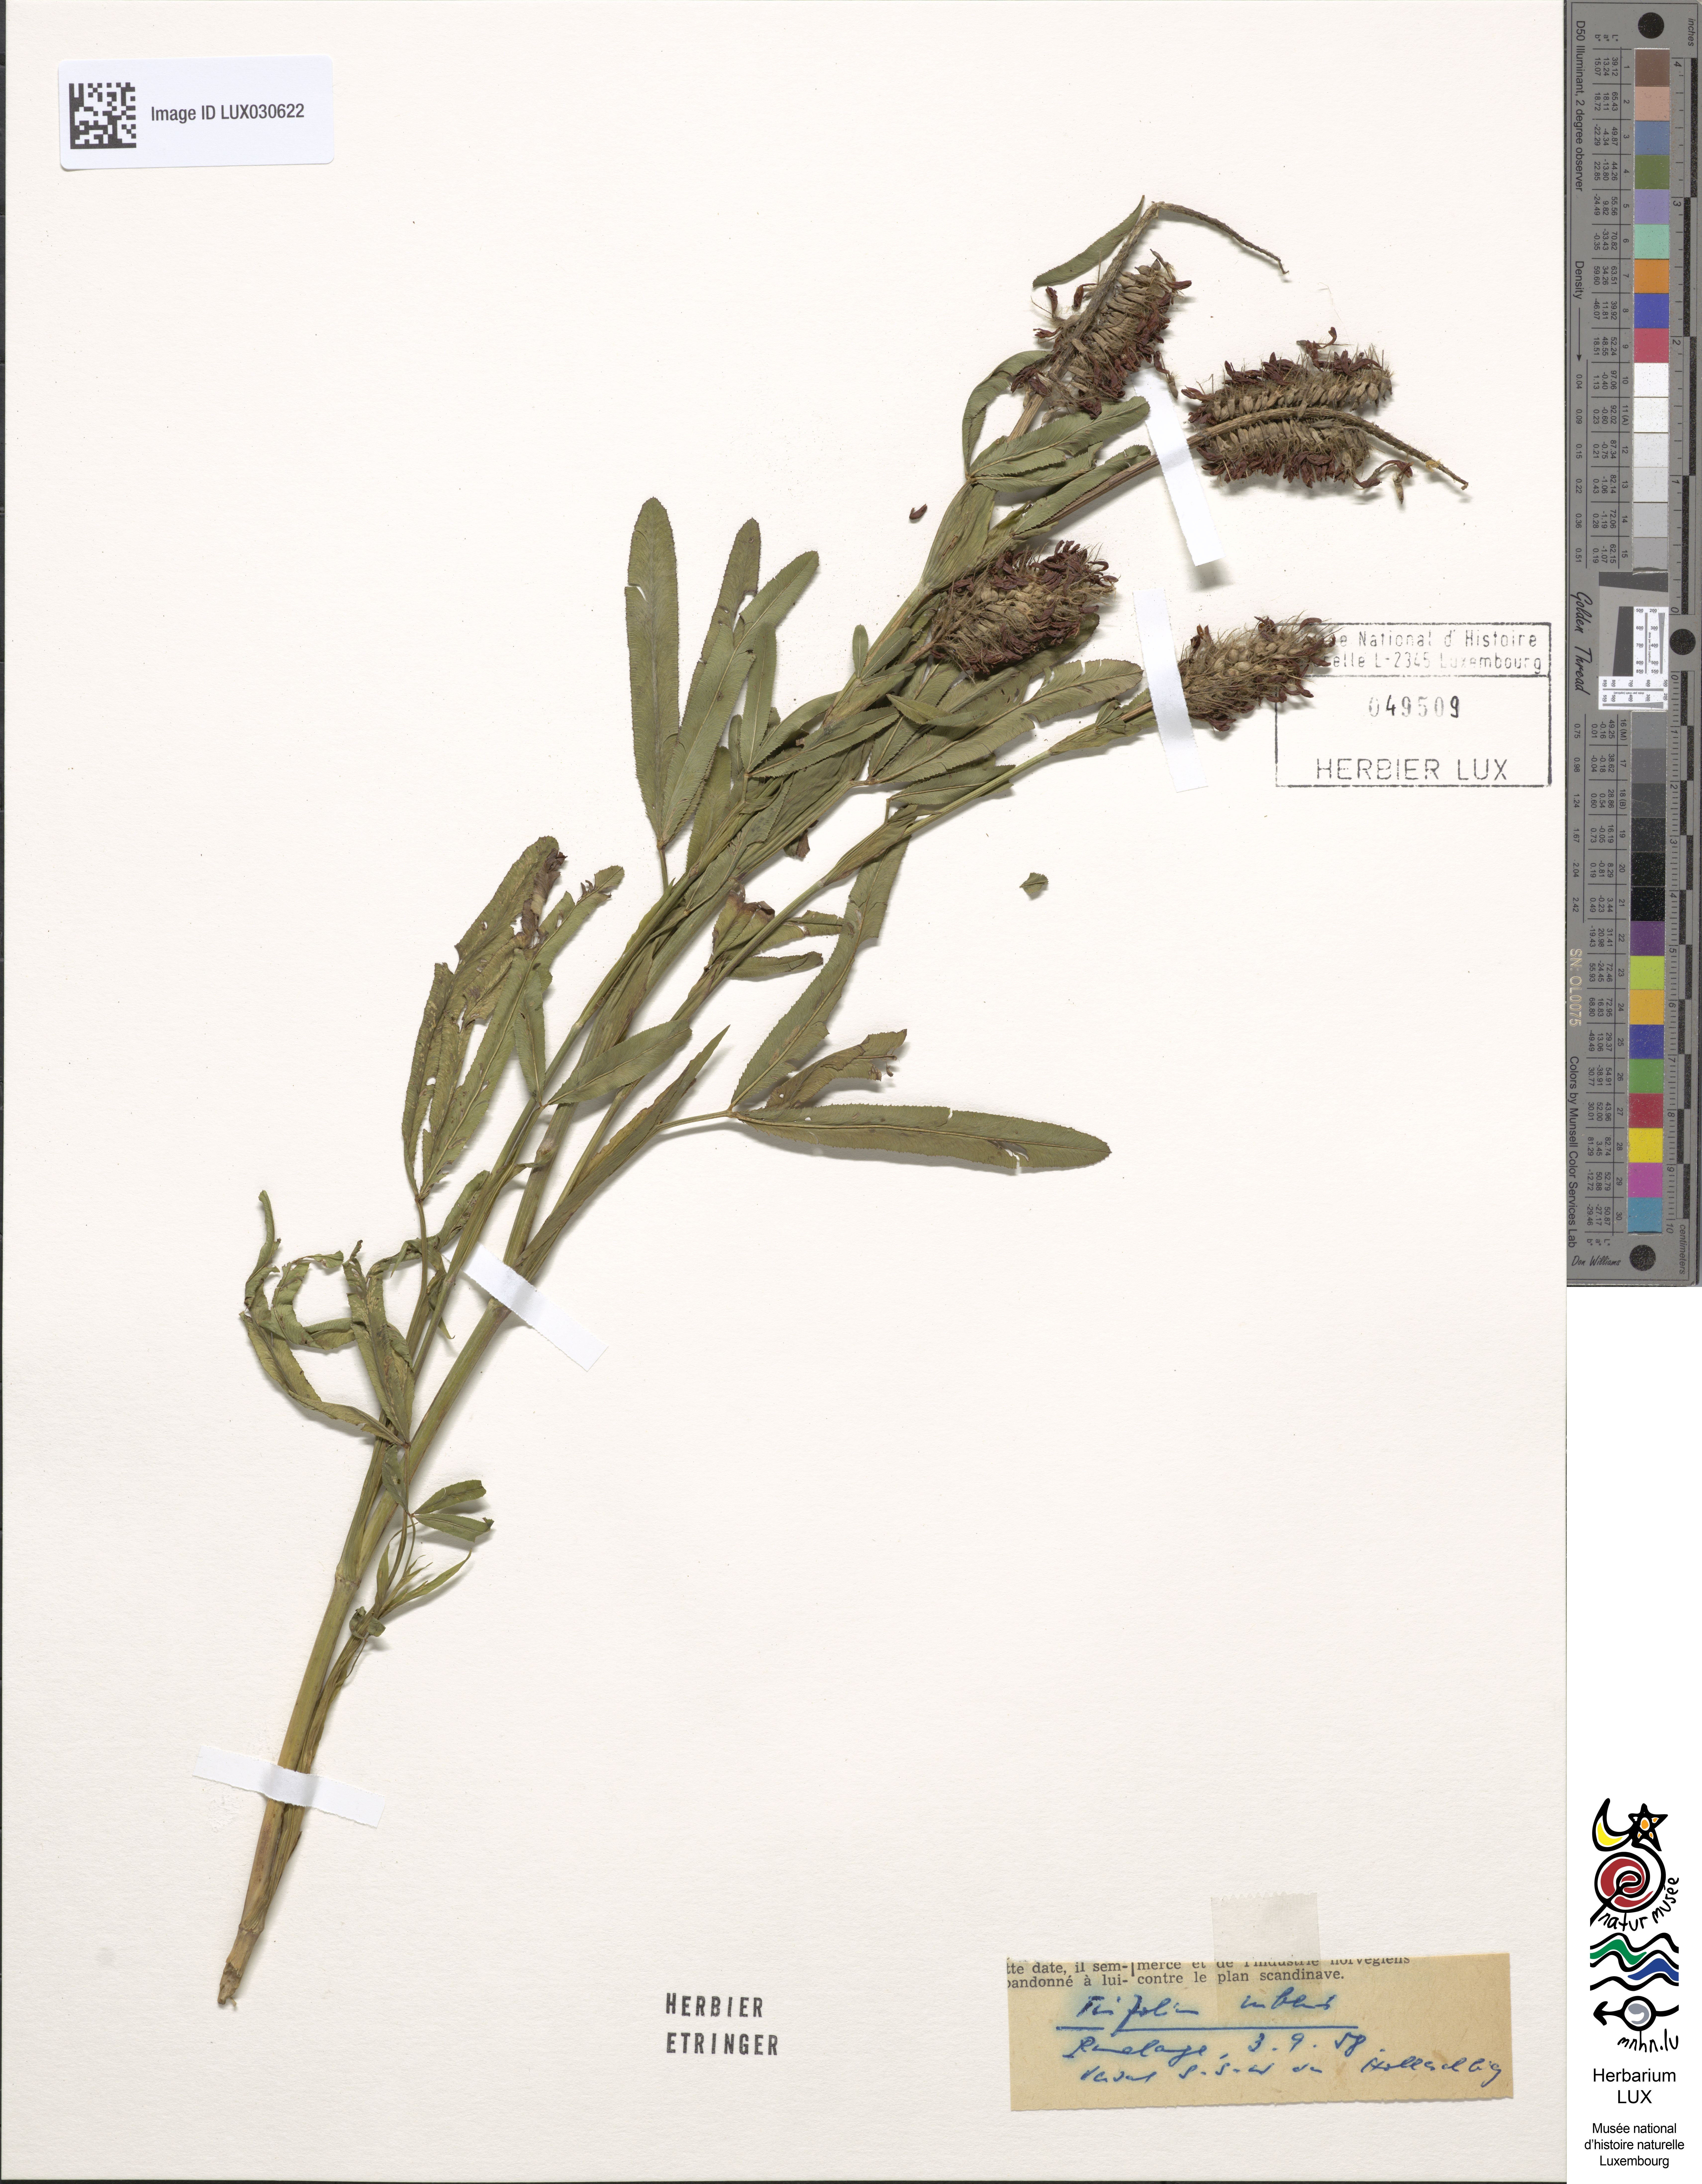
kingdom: Plantae
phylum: Tracheophyta
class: Magnoliopsida
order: Fabales
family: Fabaceae
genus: Trifolium
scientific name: Trifolium rubens
